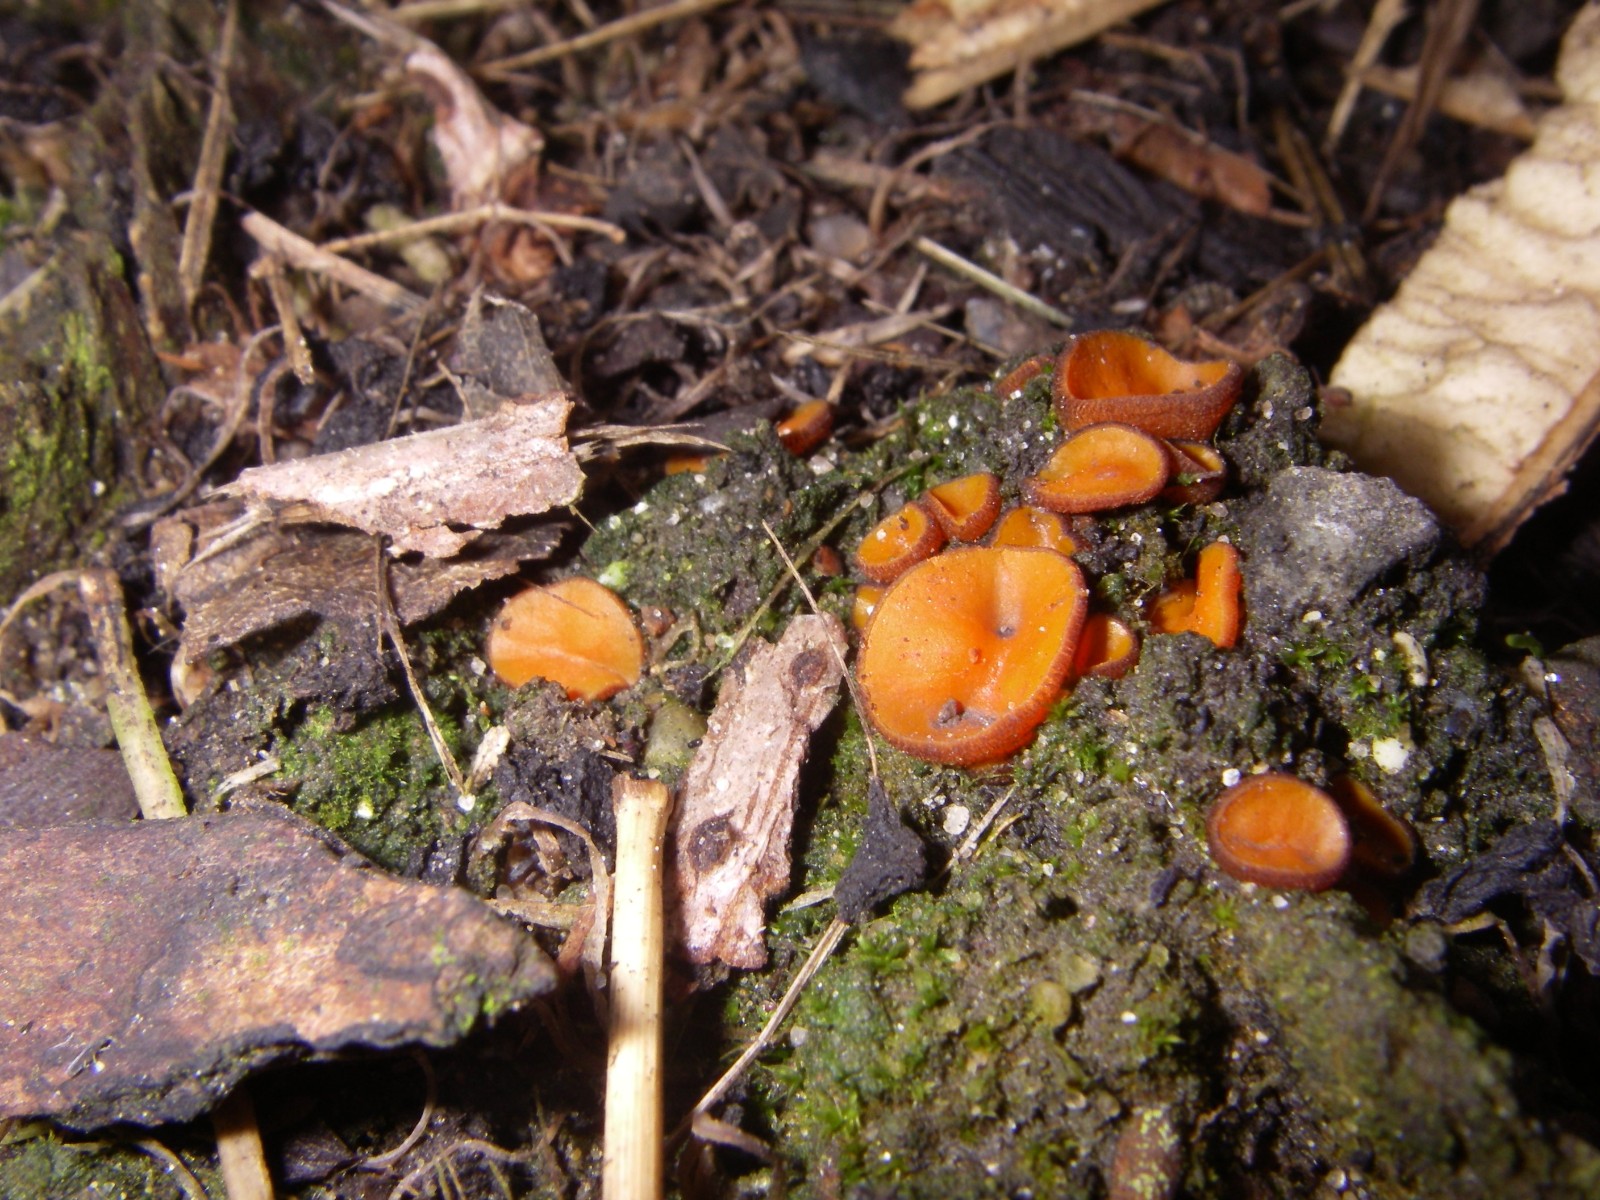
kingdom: Fungi
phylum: Ascomycota
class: Pezizomycetes
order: Pezizales
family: Pyronemataceae
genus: Melastiza
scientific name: Melastiza cornubiensis
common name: mørkrandet rødbæger
